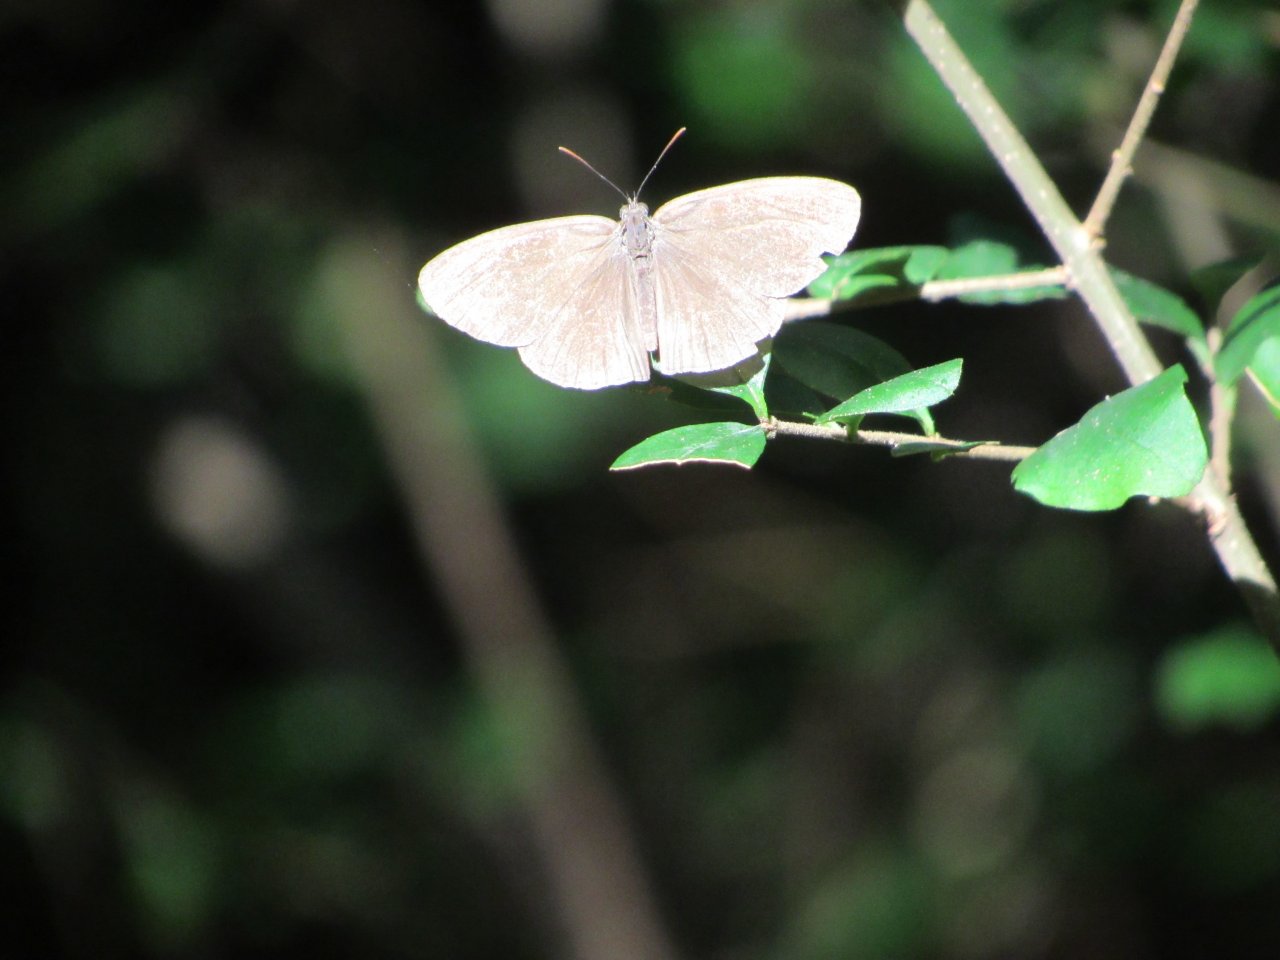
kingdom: Animalia
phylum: Arthropoda
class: Insecta
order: Lepidoptera
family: Nymphalidae
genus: Hermeuptychia
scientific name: Hermeuptychia hermes
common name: Carolina Satyr
